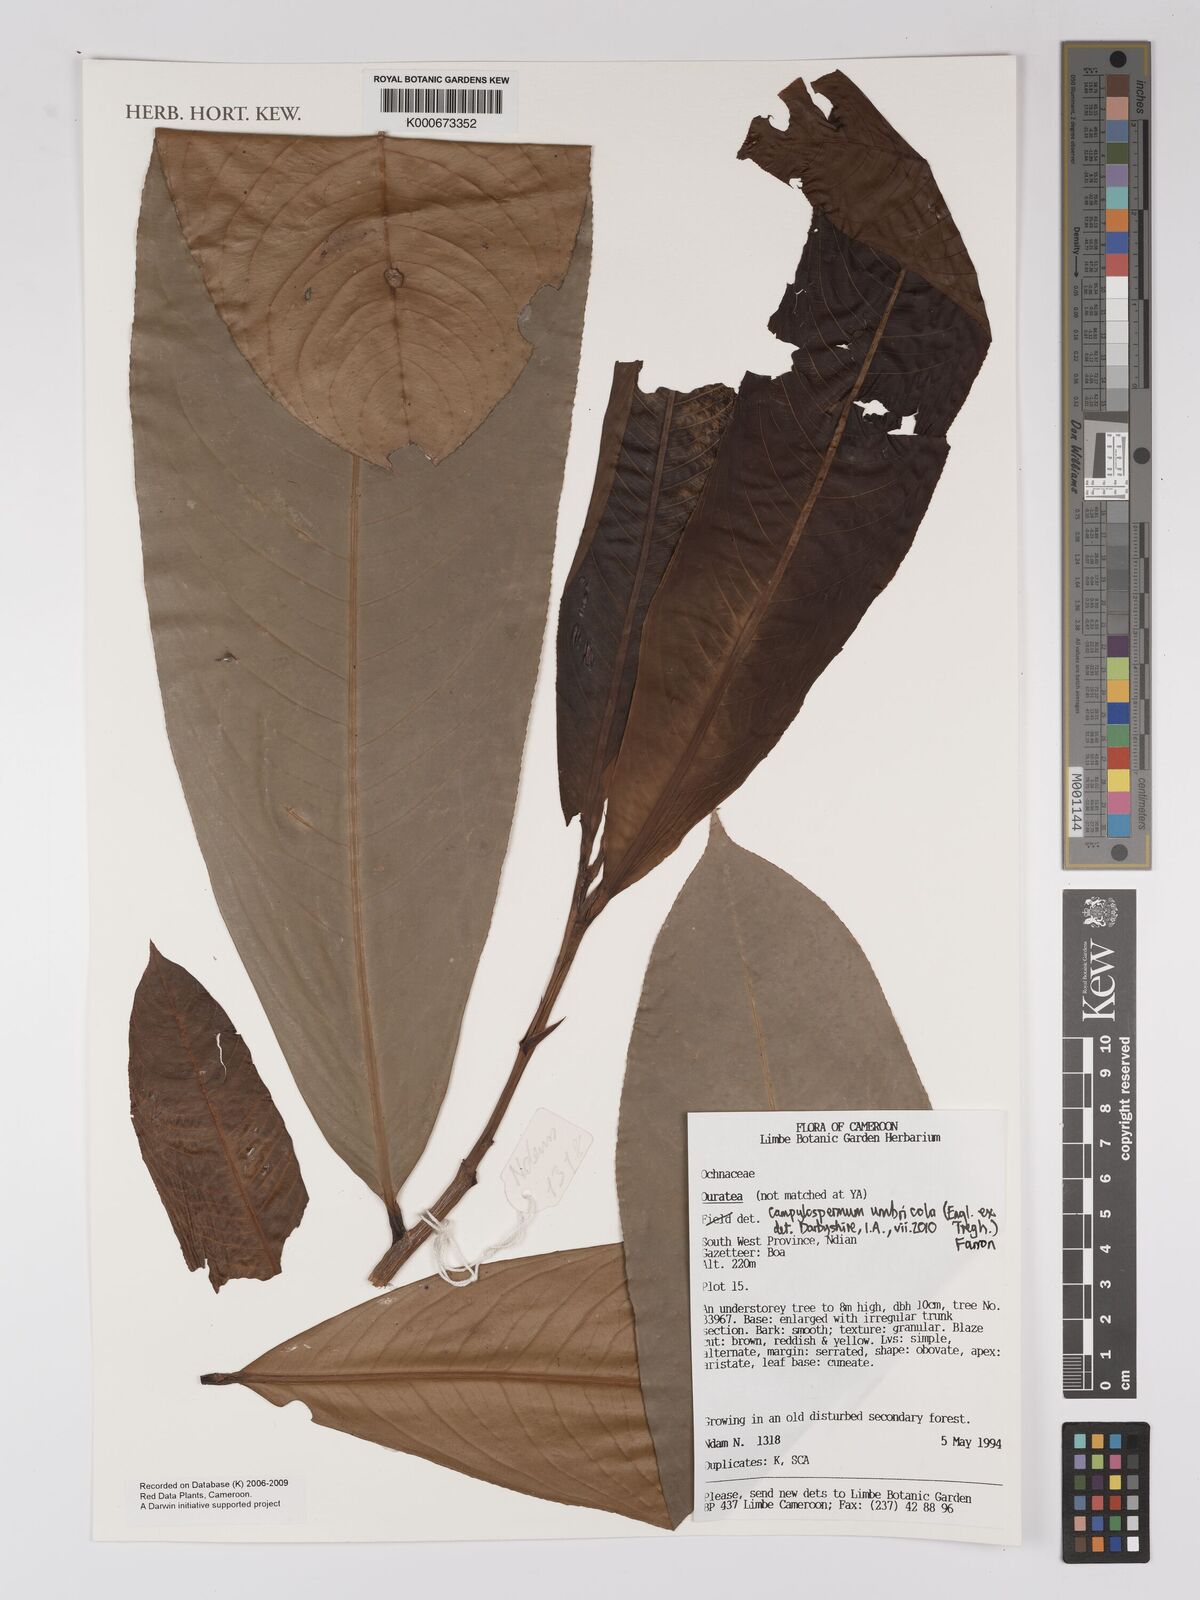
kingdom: Plantae
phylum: Tracheophyta
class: Magnoliopsida
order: Malpighiales
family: Ochnaceae
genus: Ouratea
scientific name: Ouratea
